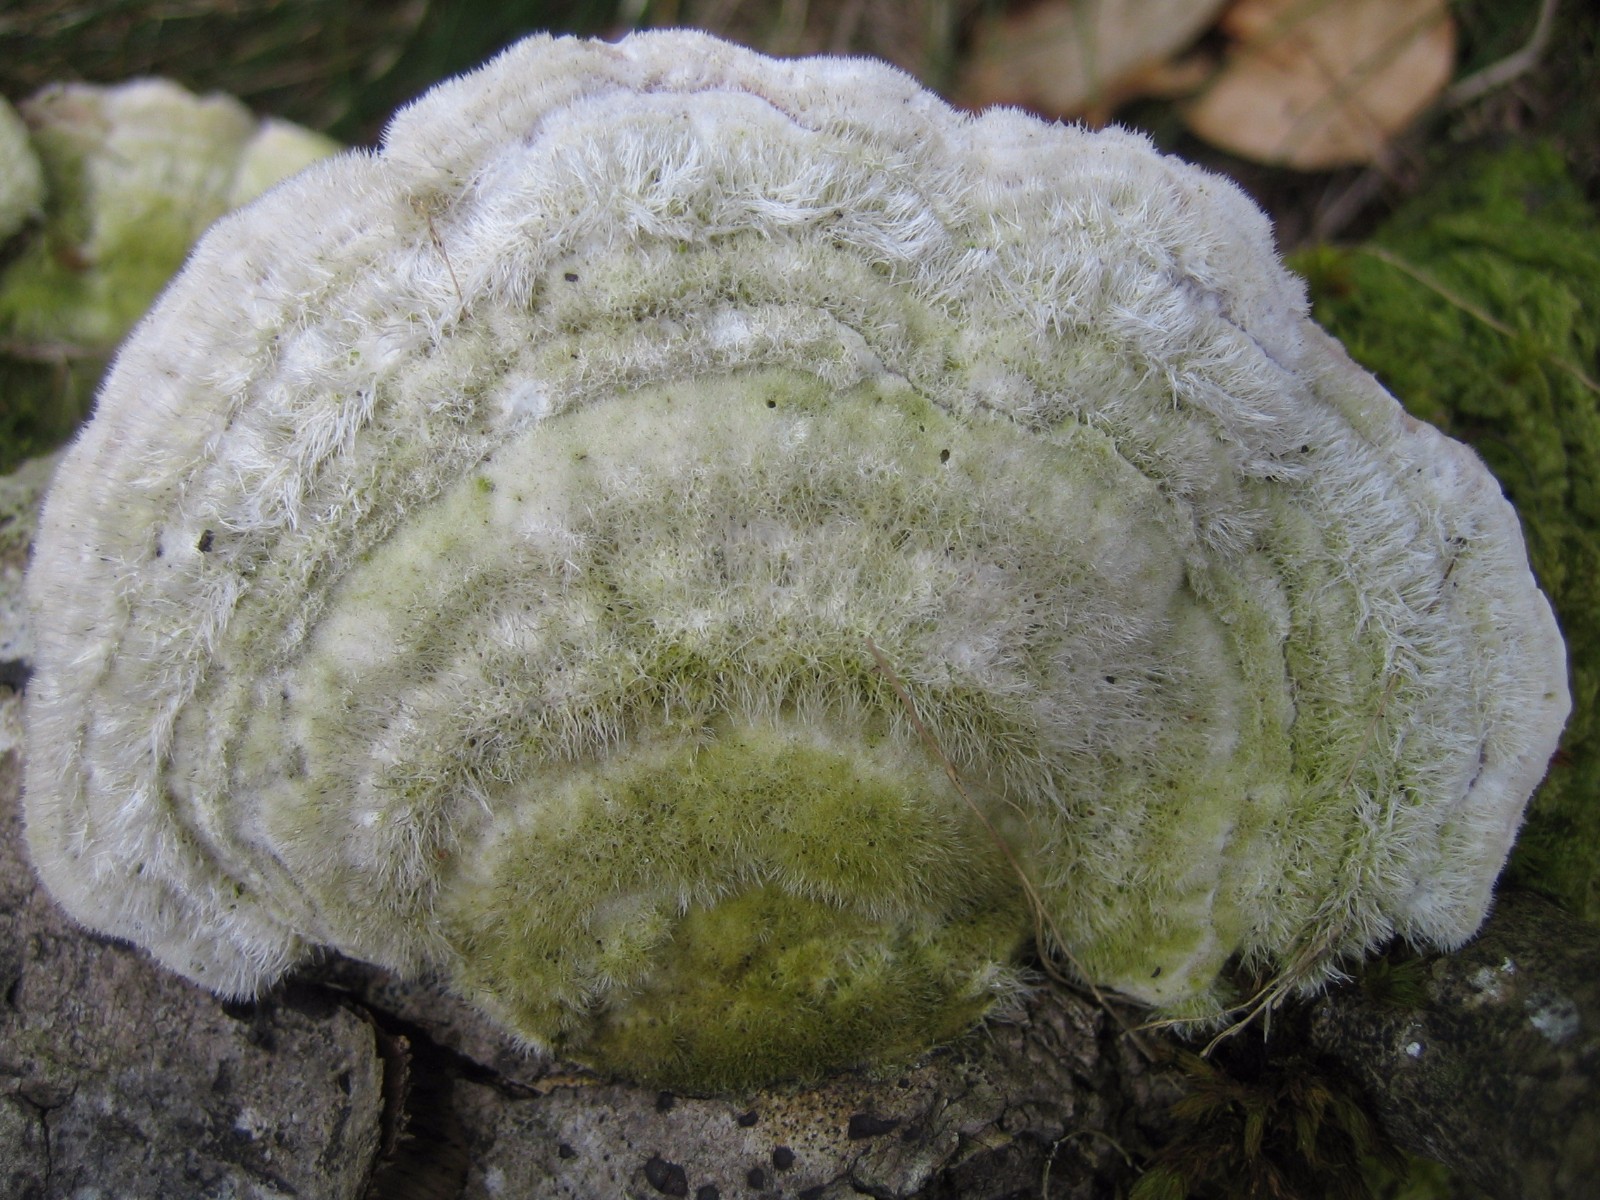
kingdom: Fungi
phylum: Basidiomycota
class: Agaricomycetes
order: Polyporales
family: Polyporaceae
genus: Trametes
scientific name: Trametes hirsuta
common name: håret læderporesvamp
